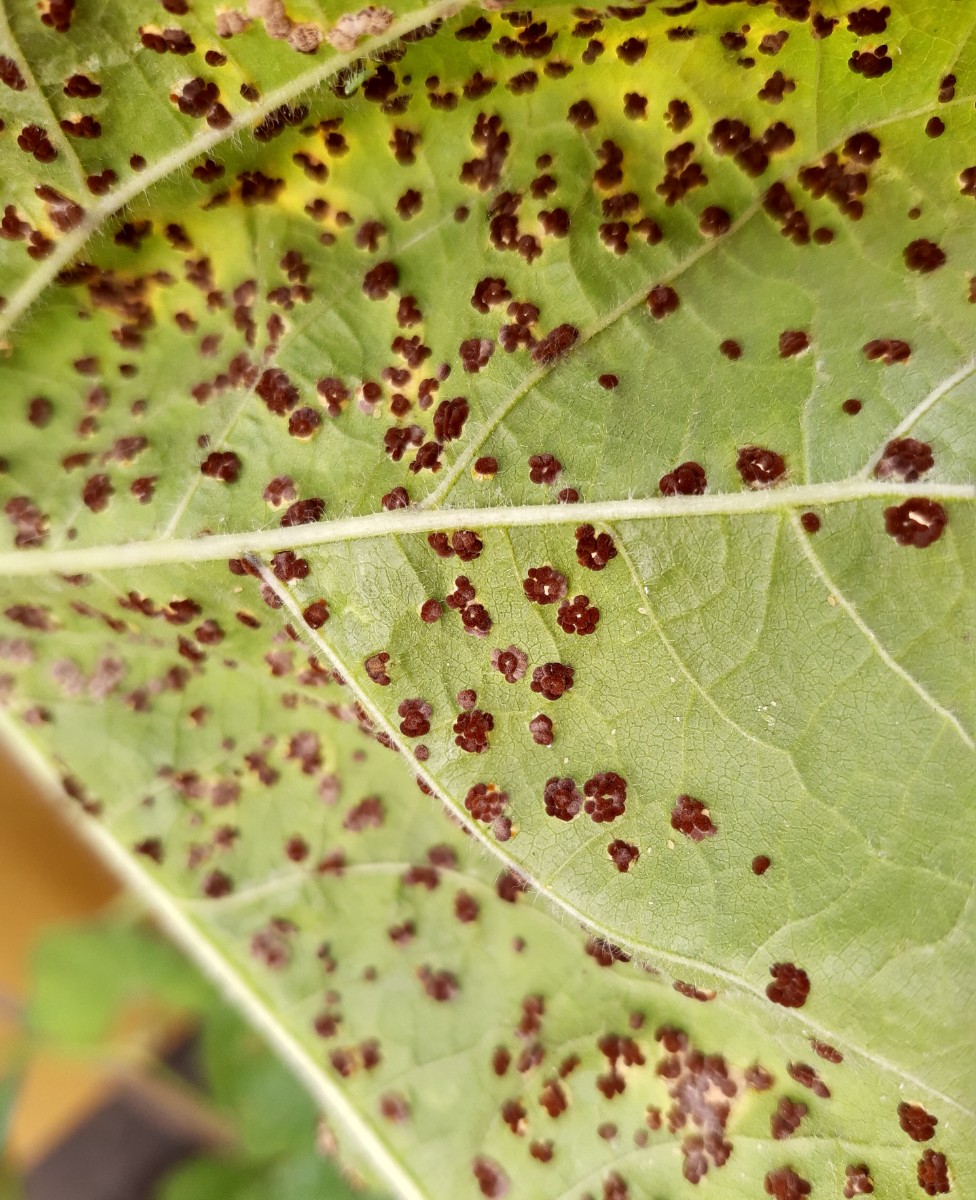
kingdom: Fungi
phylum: Basidiomycota
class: Pucciniomycetes
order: Pucciniales
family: Pucciniaceae
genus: Puccinia
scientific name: Puccinia malvacearum
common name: stokrose-tvecellerust
